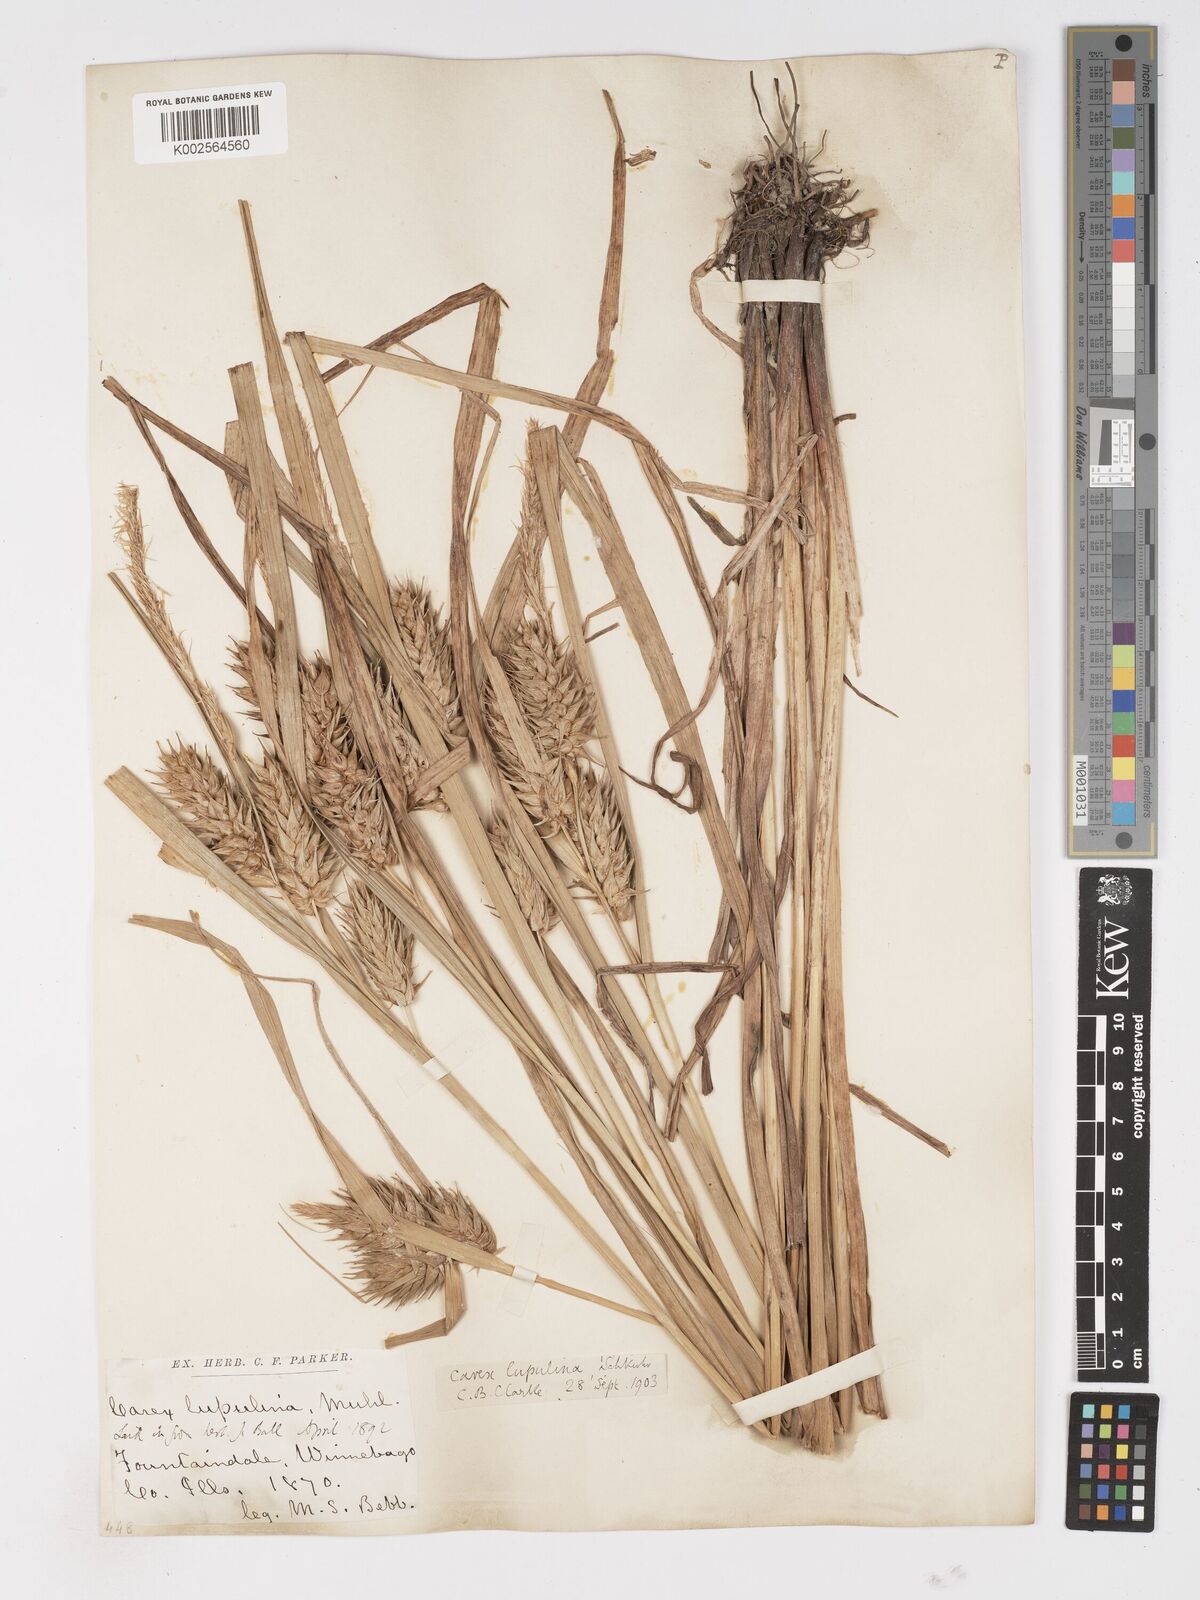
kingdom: Plantae
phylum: Tracheophyta
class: Liliopsida
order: Poales
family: Cyperaceae
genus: Carex
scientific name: Carex lupulina
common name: Hop sedge
